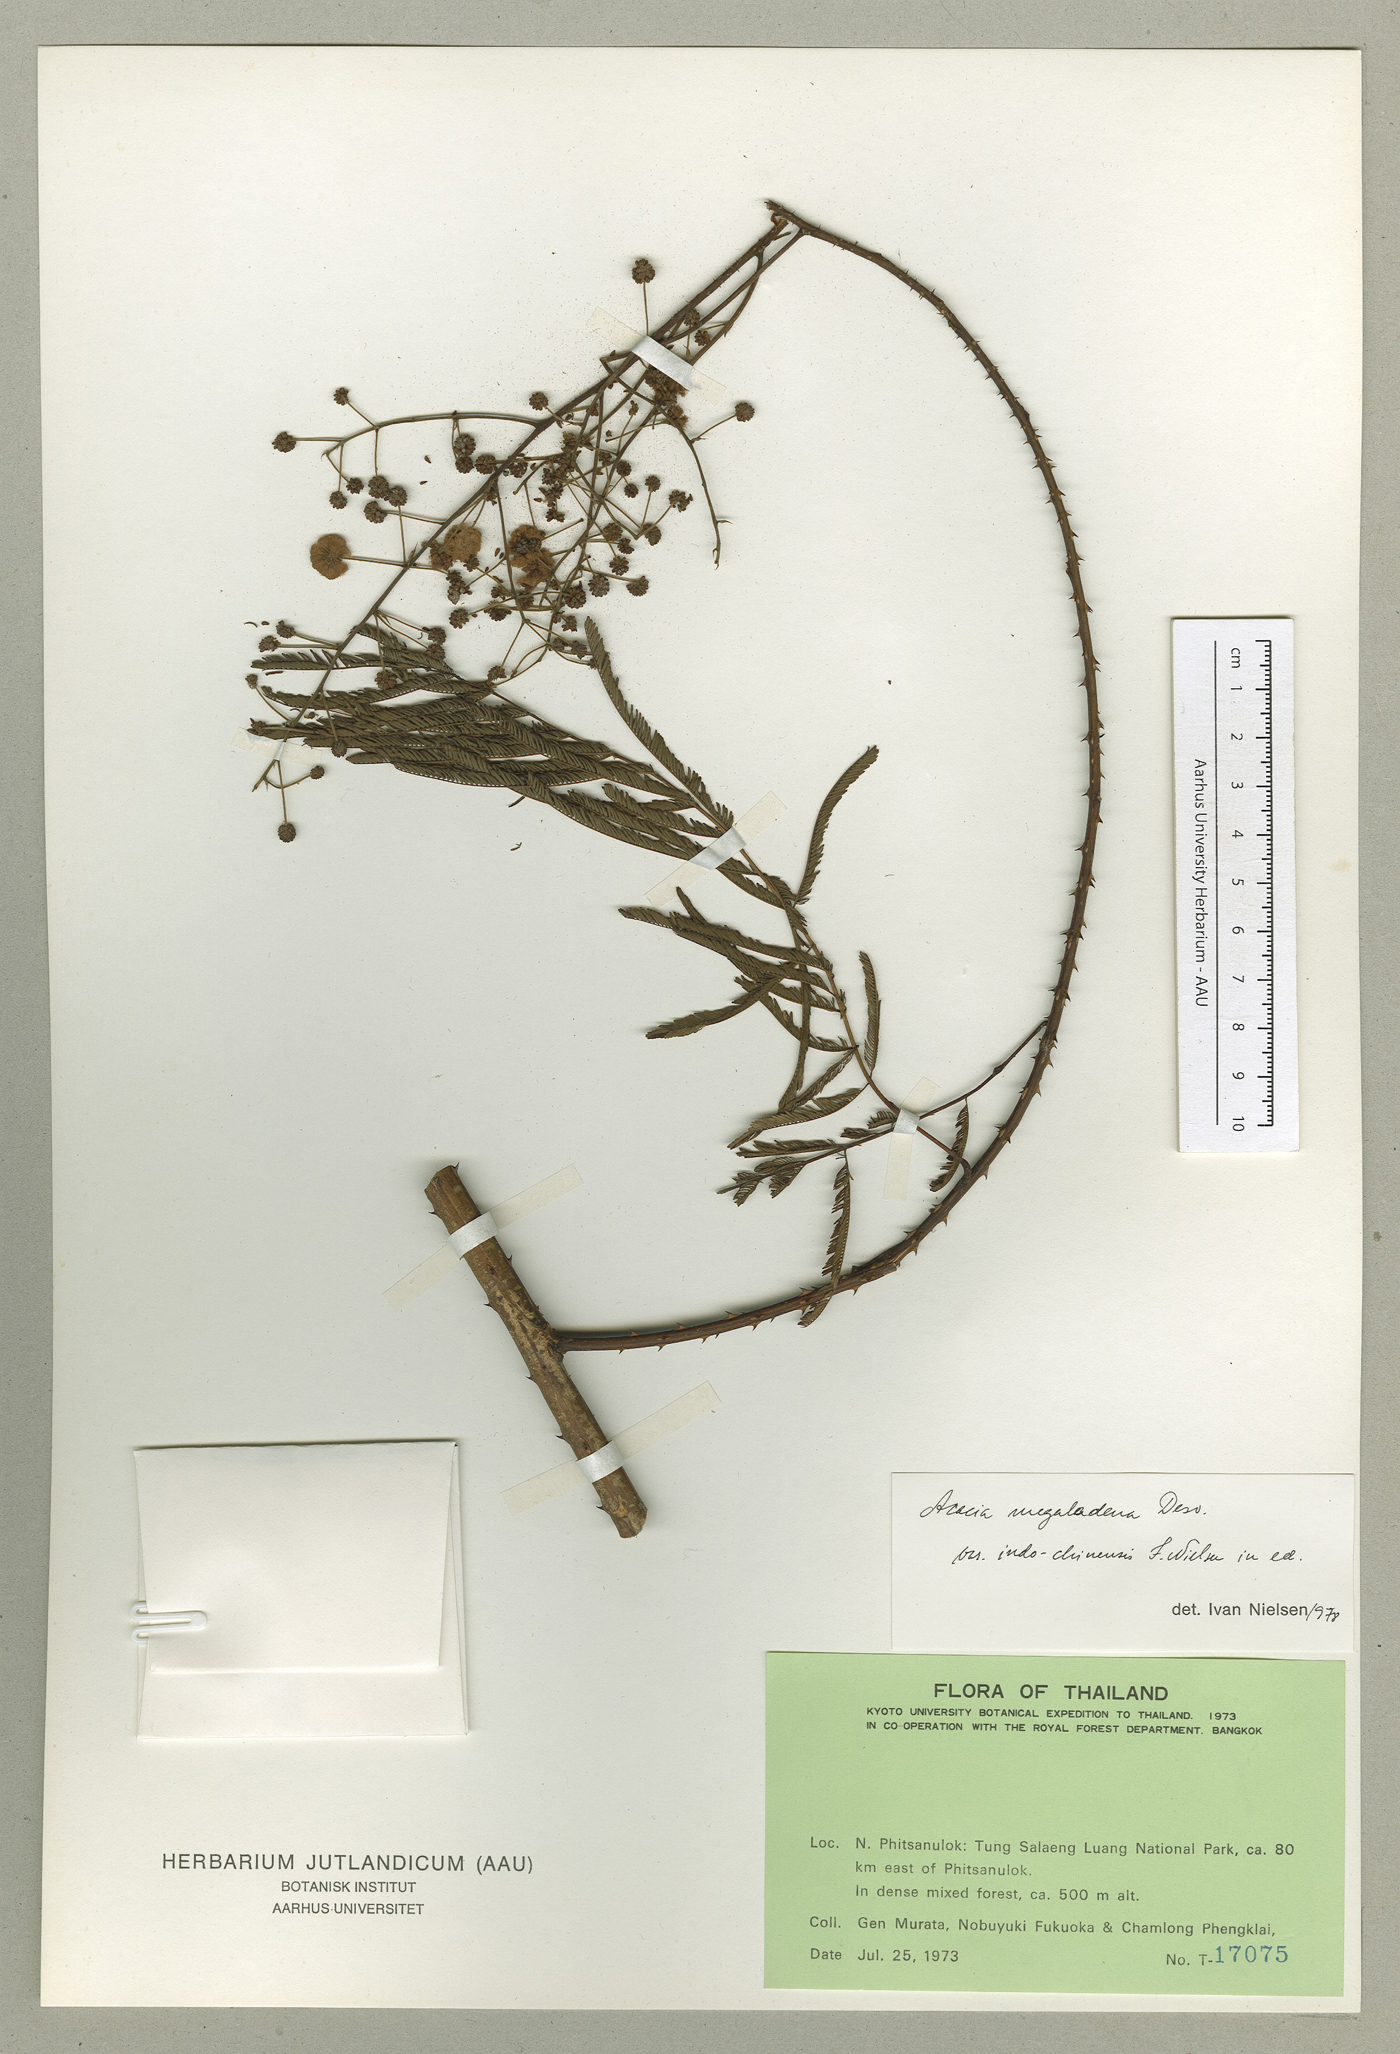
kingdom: Plantae
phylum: Tracheophyta
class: Magnoliopsida
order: Fabales
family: Fabaceae
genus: Senegalia
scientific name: Senegalia megaladena
